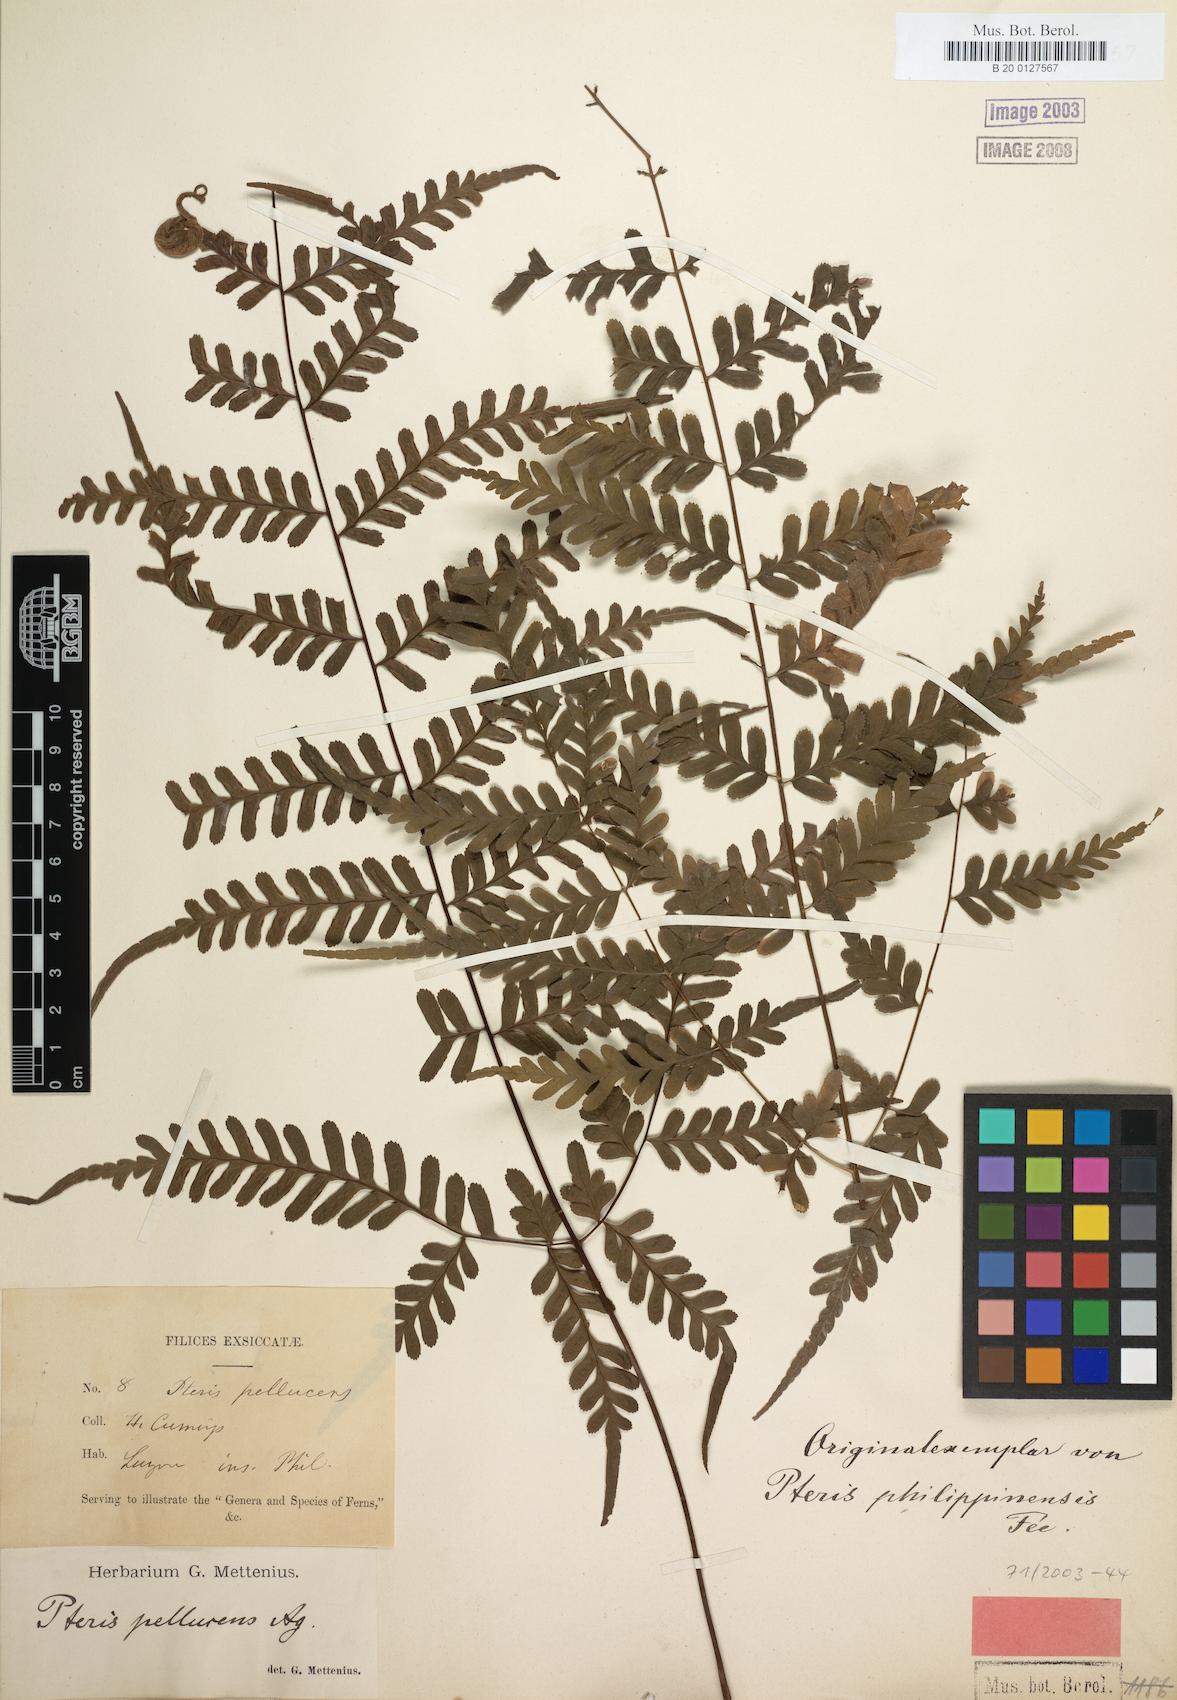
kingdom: Plantae
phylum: Tracheophyta
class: Polypodiopsida
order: Polypodiales
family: Pteridaceae
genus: Pteris
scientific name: Pteris pellucens
